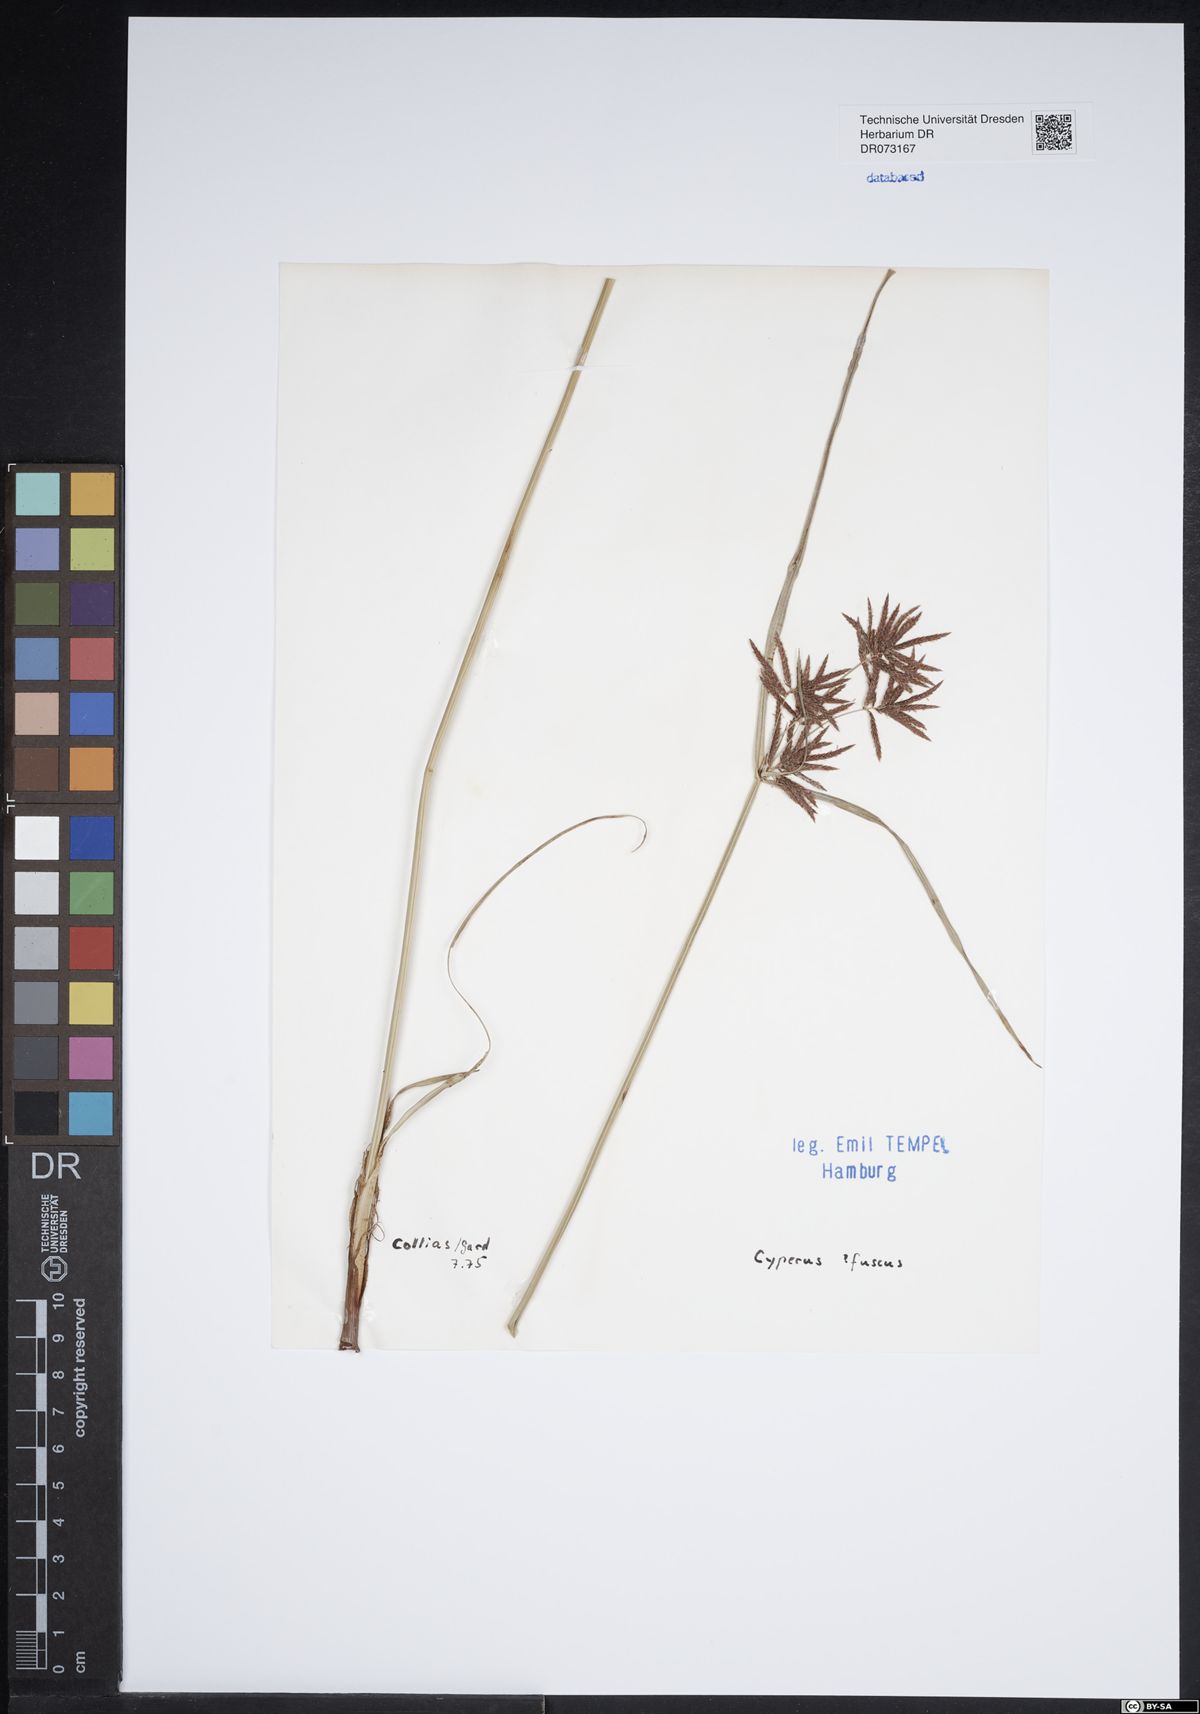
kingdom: Plantae
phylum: Tracheophyta
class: Liliopsida
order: Poales
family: Cyperaceae
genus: Cyperus
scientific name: Cyperus fuscus
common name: Brown galingale
